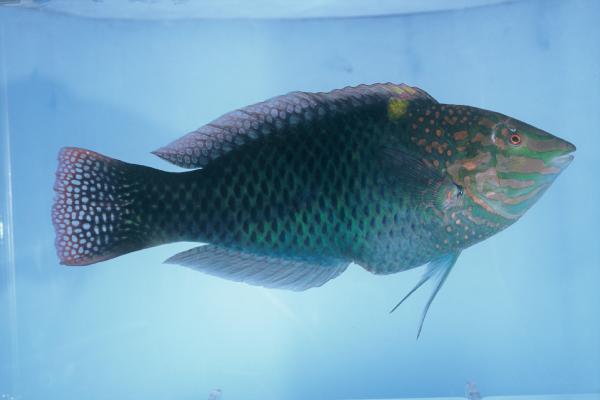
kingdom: Animalia
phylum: Chordata
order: Perciformes
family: Labridae
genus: Halichoeres
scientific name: Halichoeres hortulanus
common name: Checkerboard wrasse
